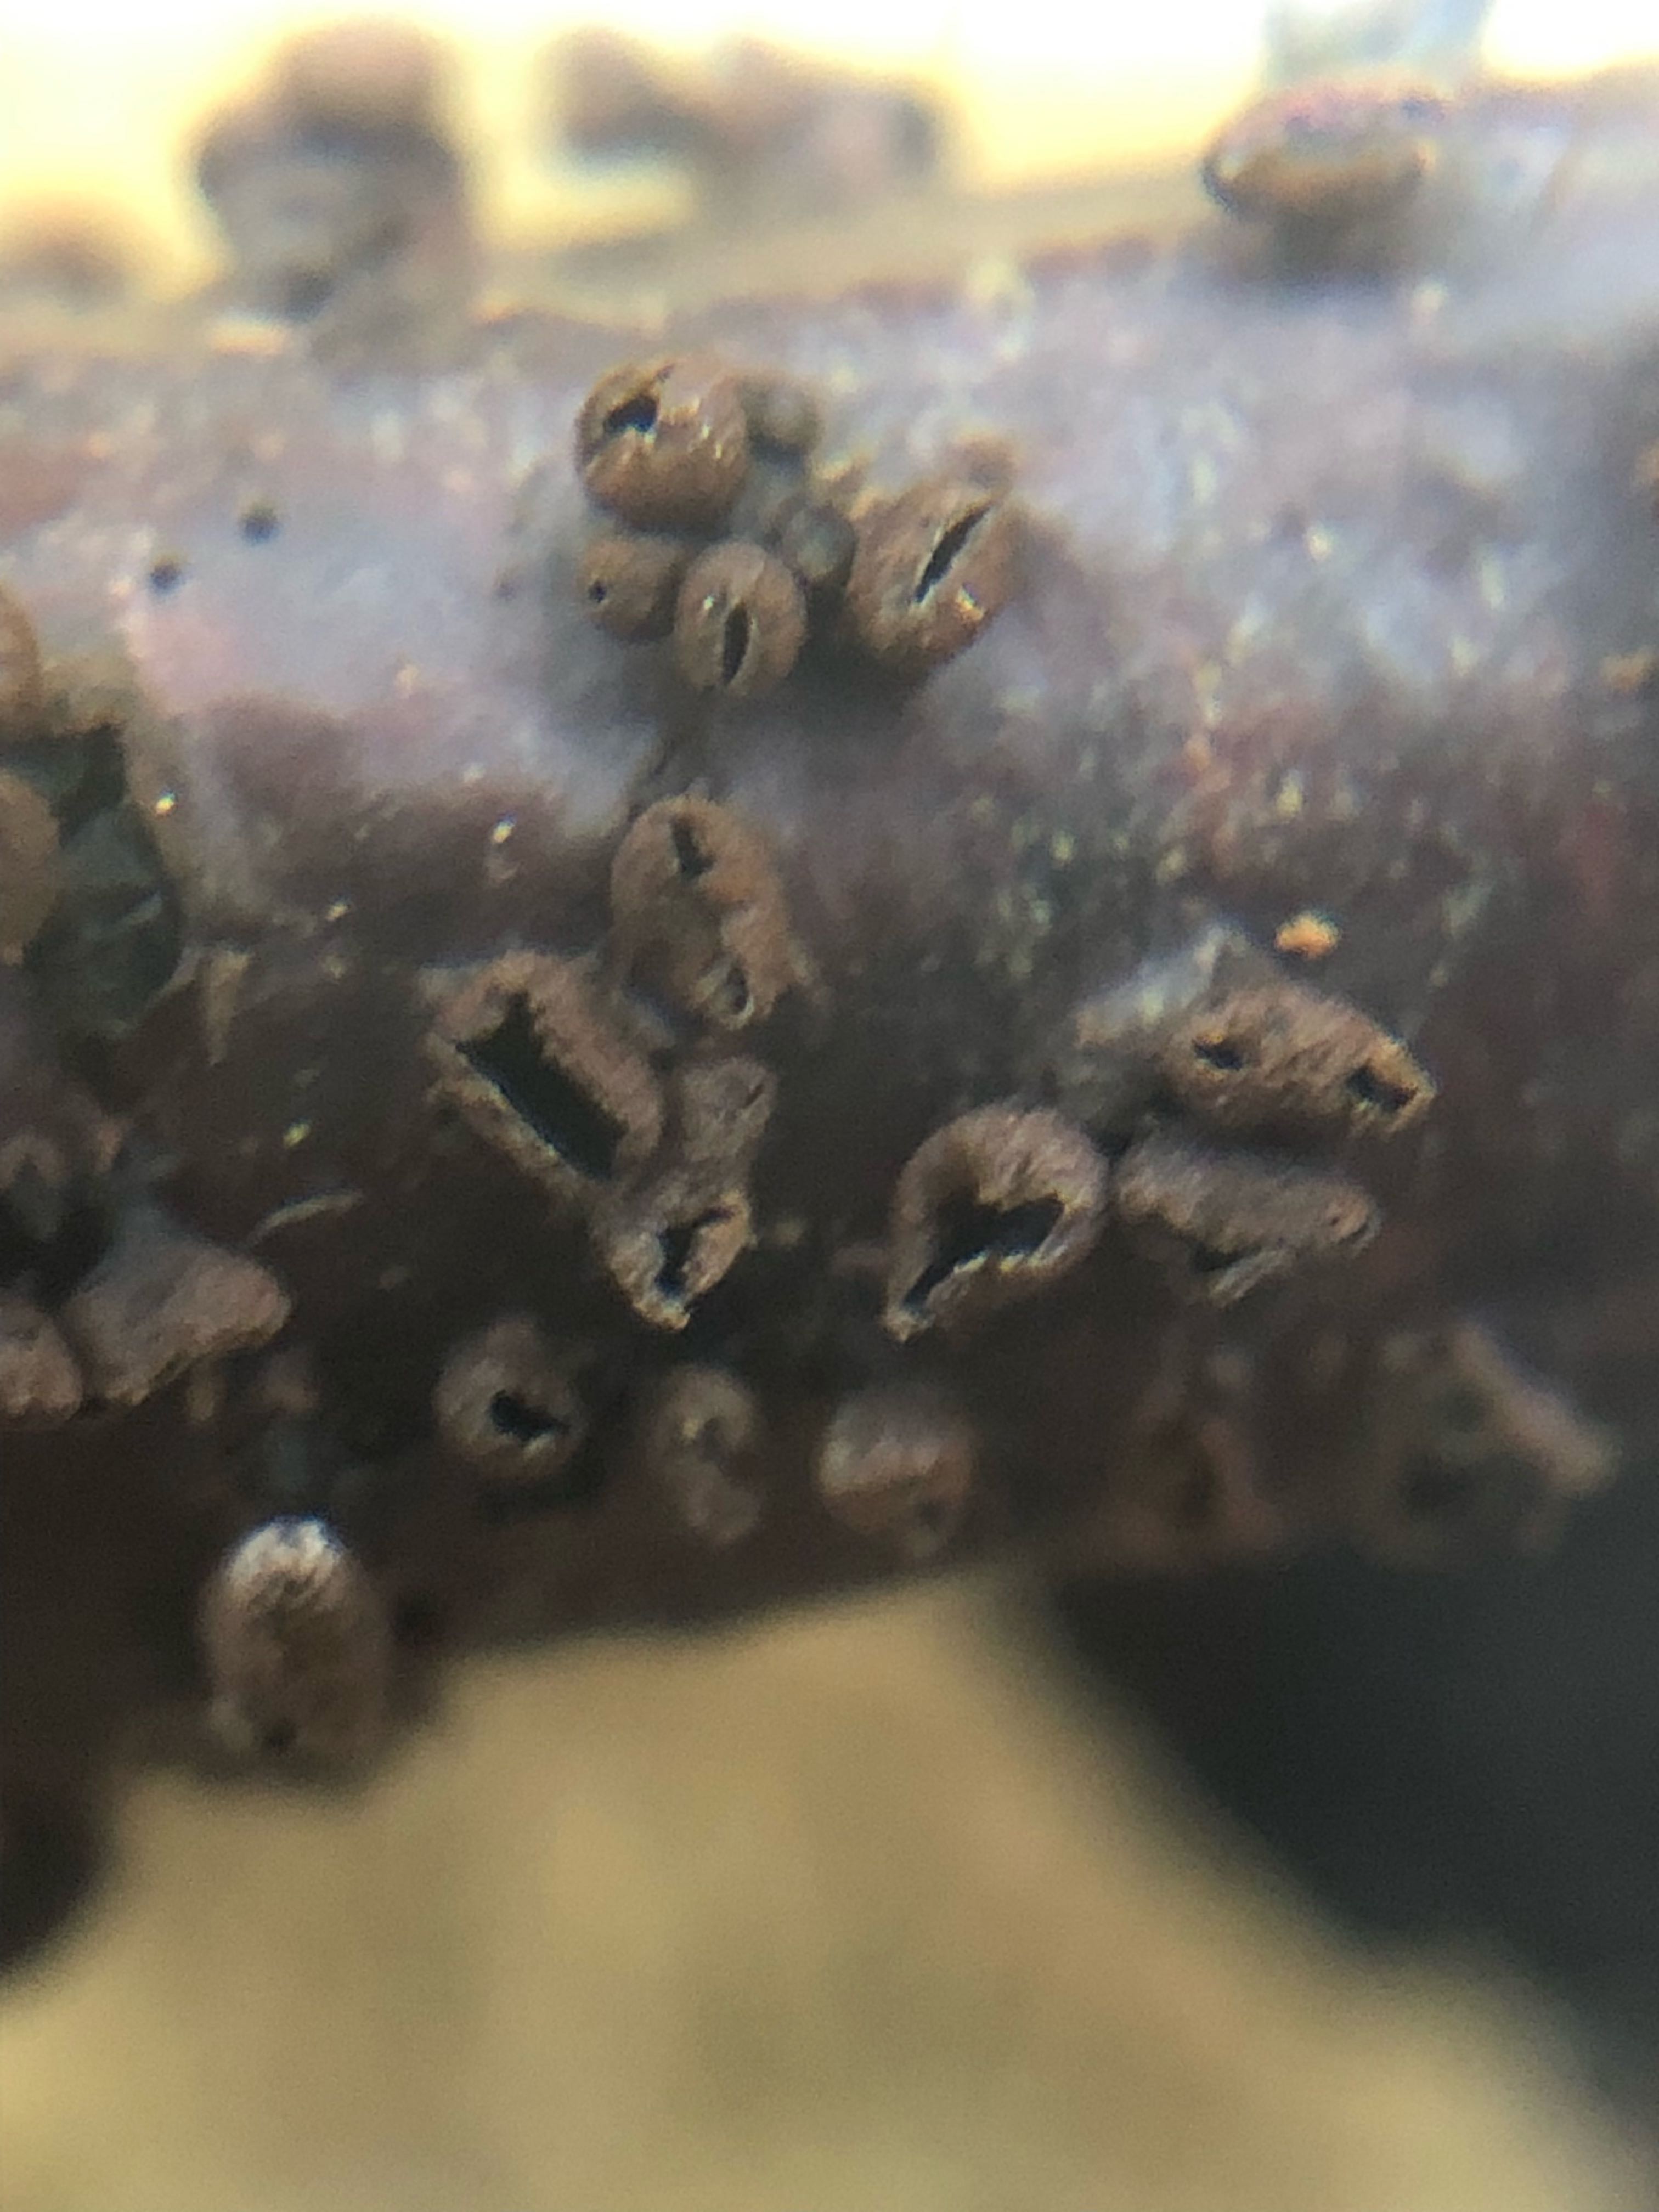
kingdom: Fungi
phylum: Ascomycota
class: Leotiomycetes
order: Helotiales
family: Godroniaceae
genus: Godronia
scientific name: Godronia ribis
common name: ribs-urneskive
